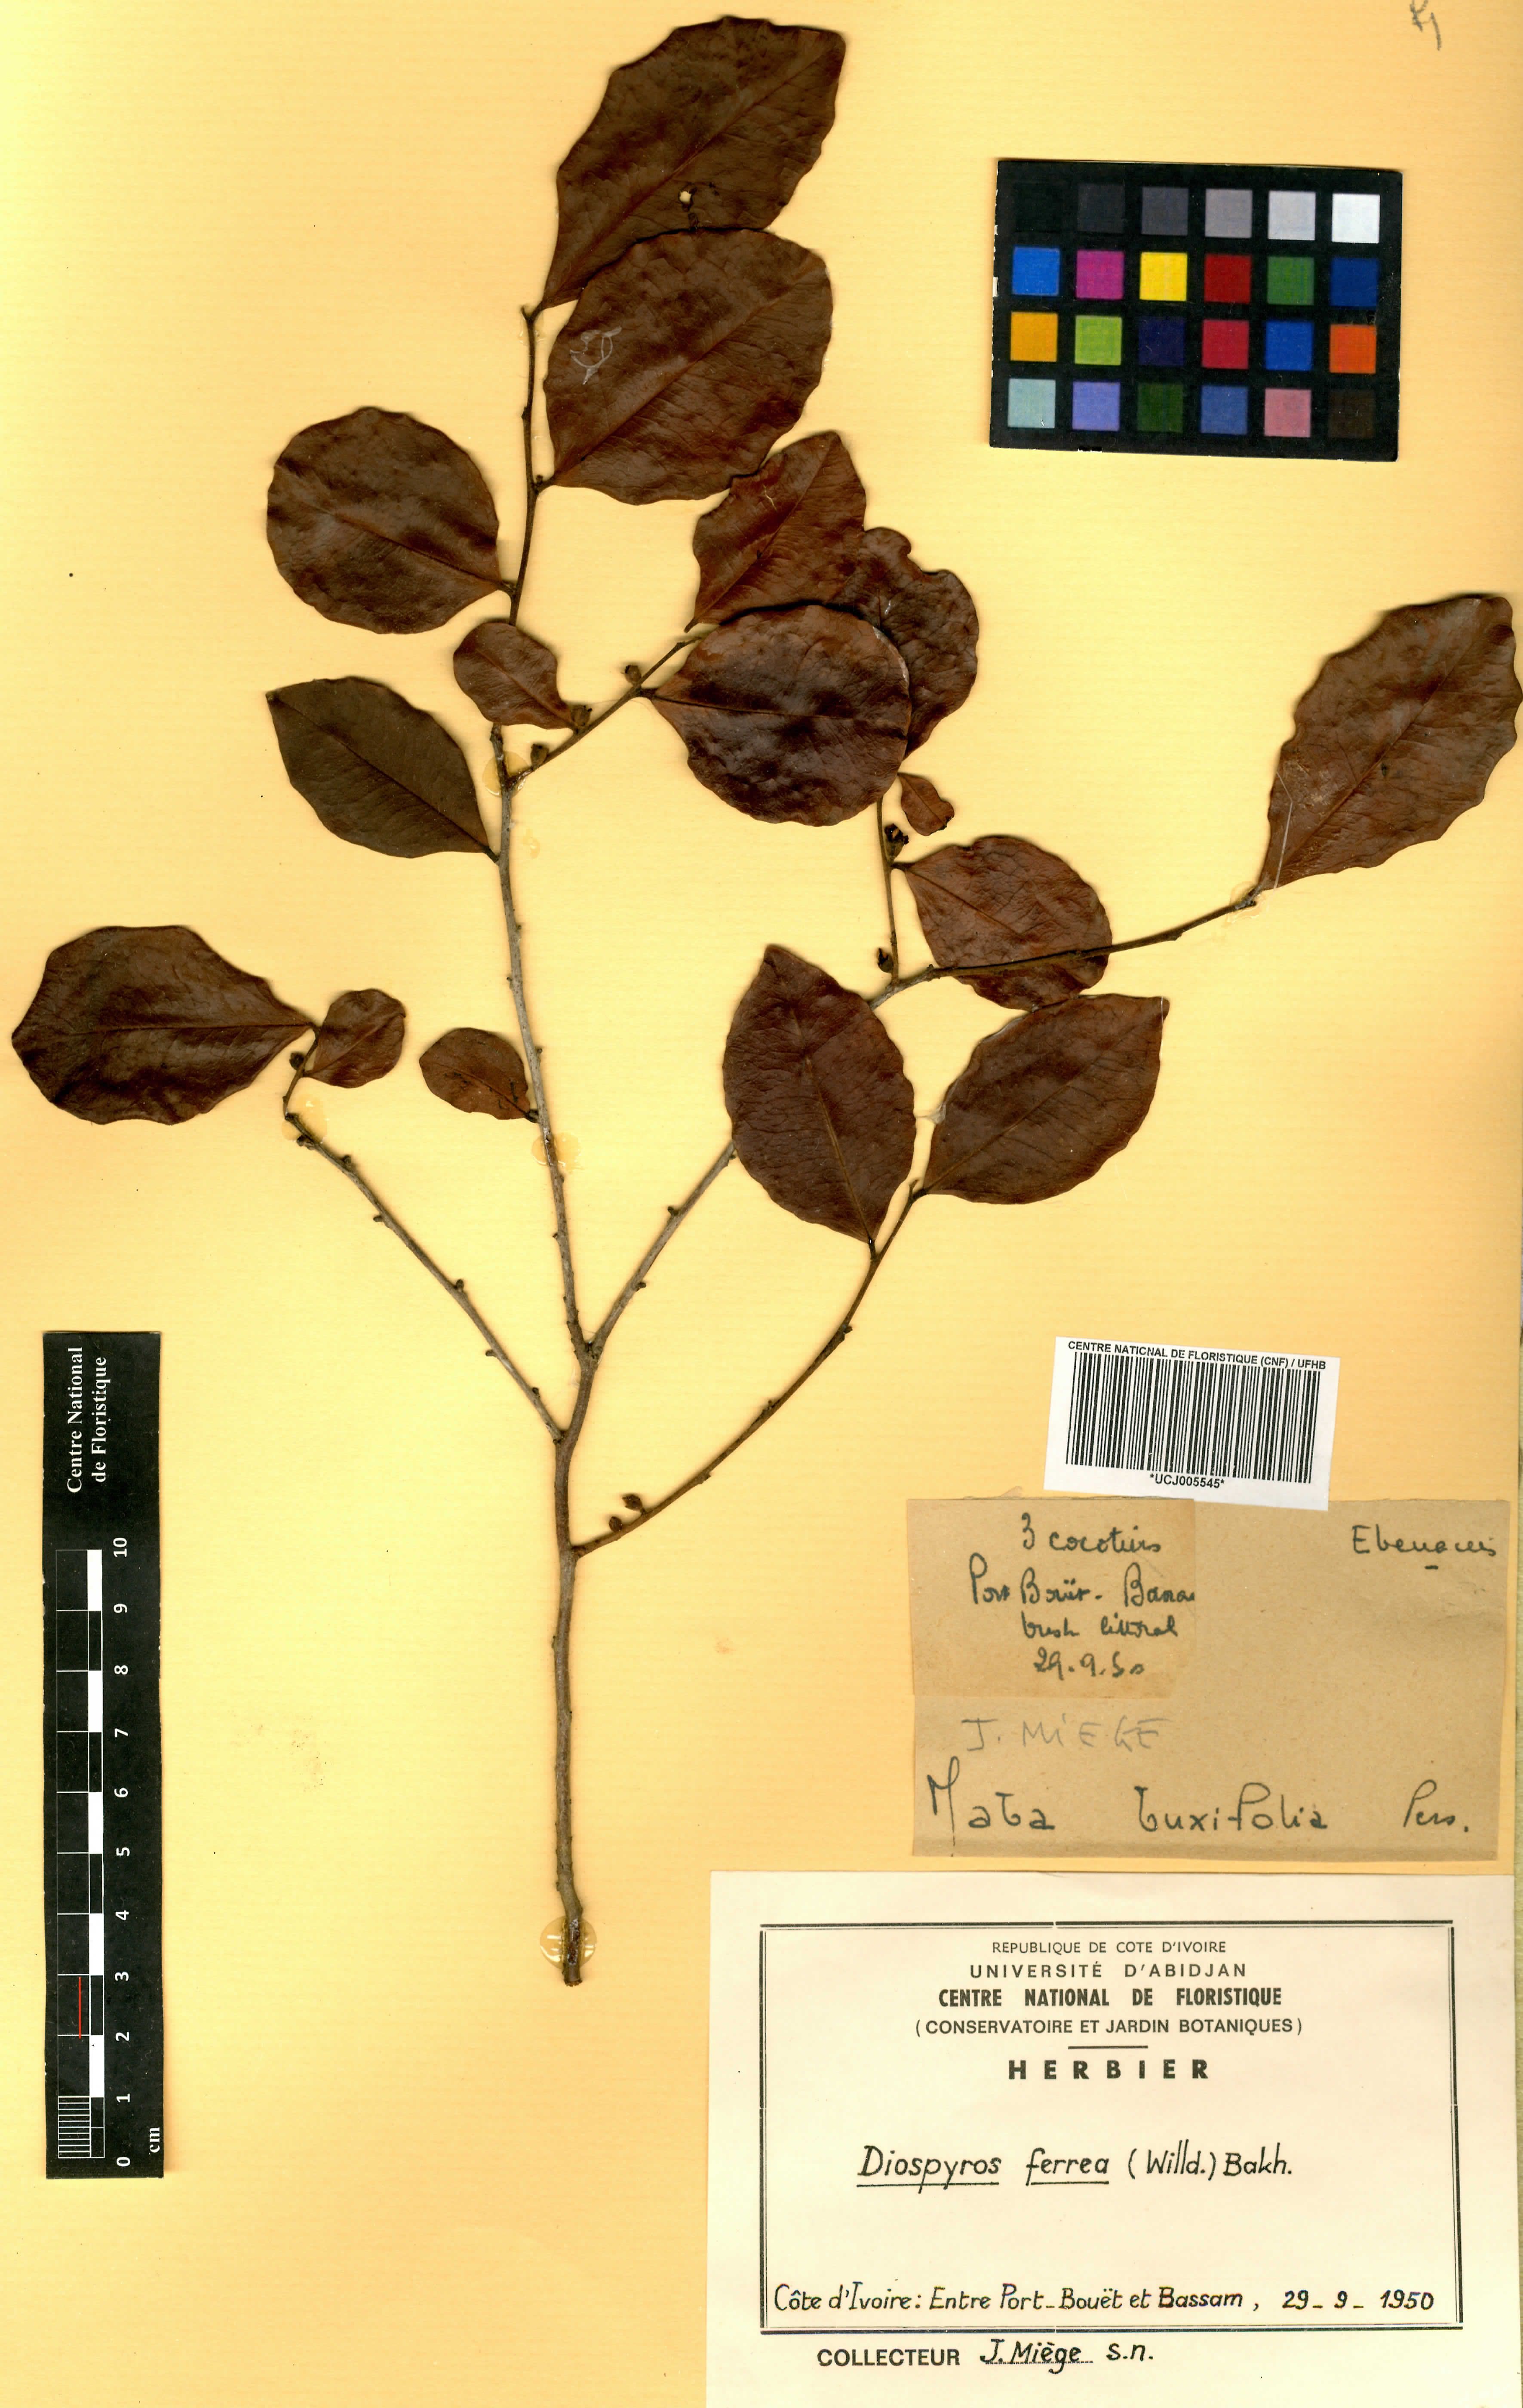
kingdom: Plantae
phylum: Tracheophyta
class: Magnoliopsida
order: Ericales
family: Ebenaceae
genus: Diospyros
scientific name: Diospyros ferrea
